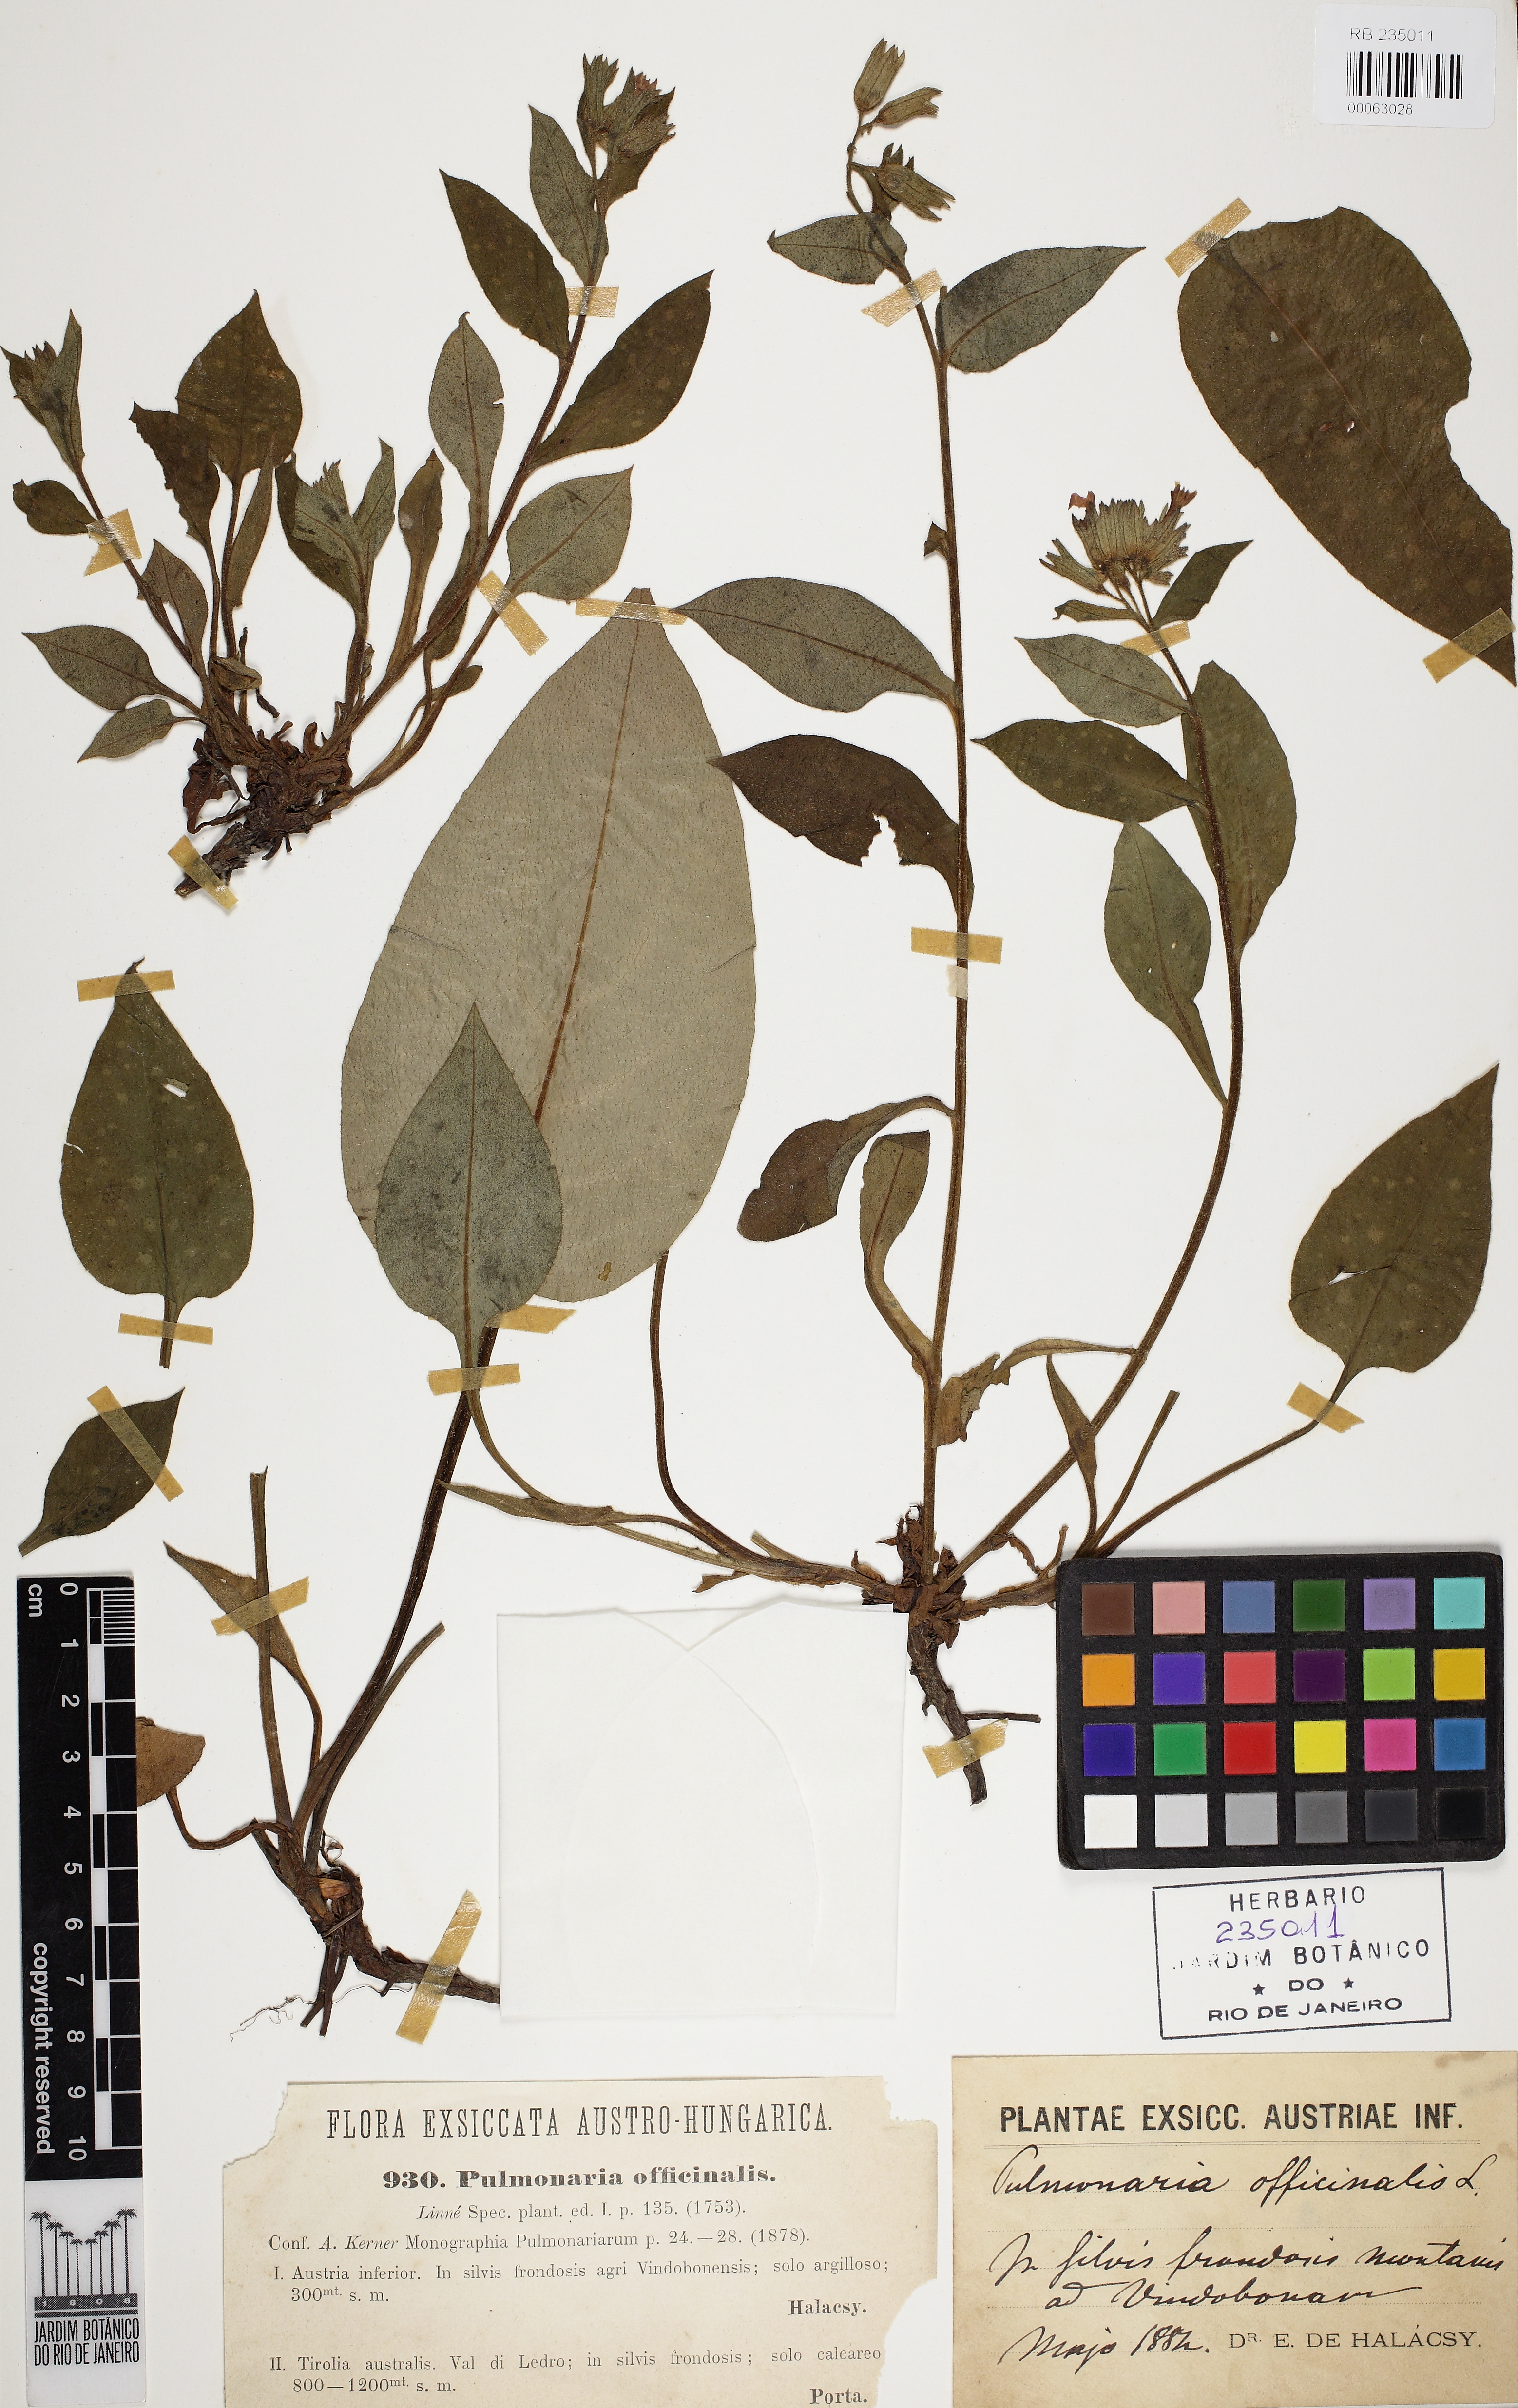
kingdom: Plantae
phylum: Tracheophyta
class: Magnoliopsida
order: Boraginales
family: Boraginaceae
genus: Pulmonaria
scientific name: Pulmonaria officinalis
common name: Lungwort
